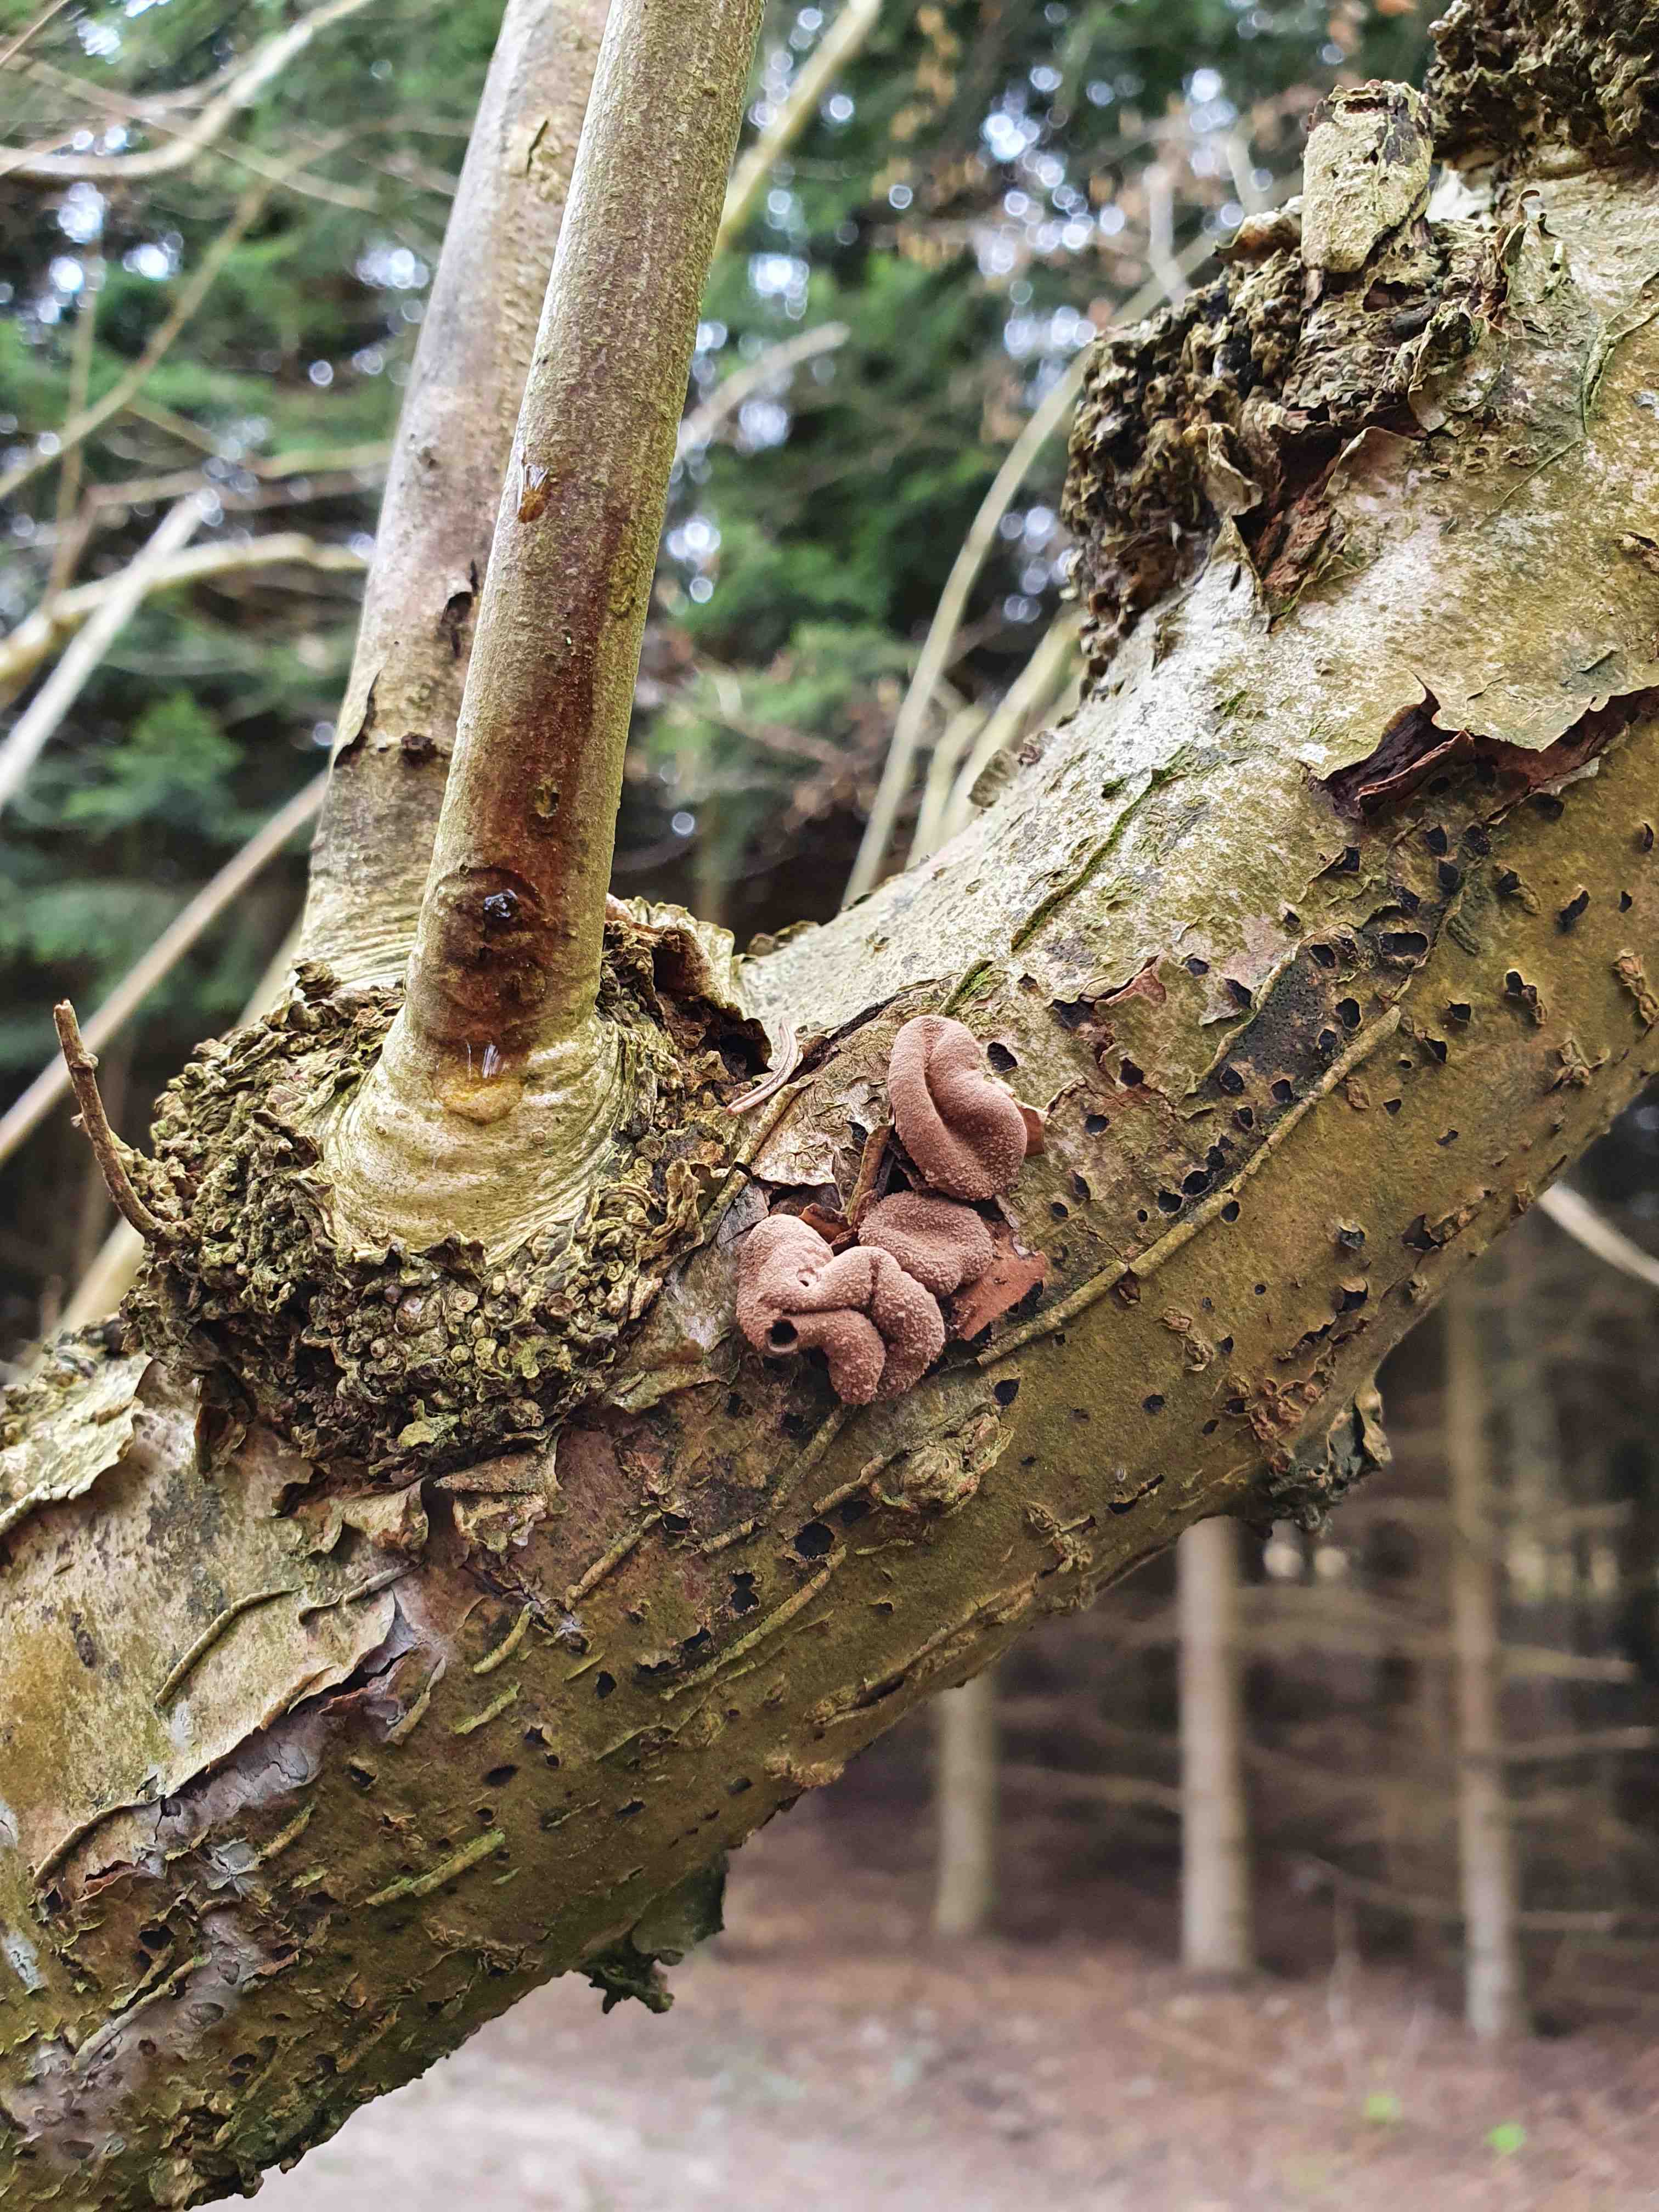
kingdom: Fungi
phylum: Ascomycota
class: Leotiomycetes
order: Helotiales
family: Cenangiaceae
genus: Encoelia
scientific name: Encoelia furfuracea
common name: hassel-læderskive
